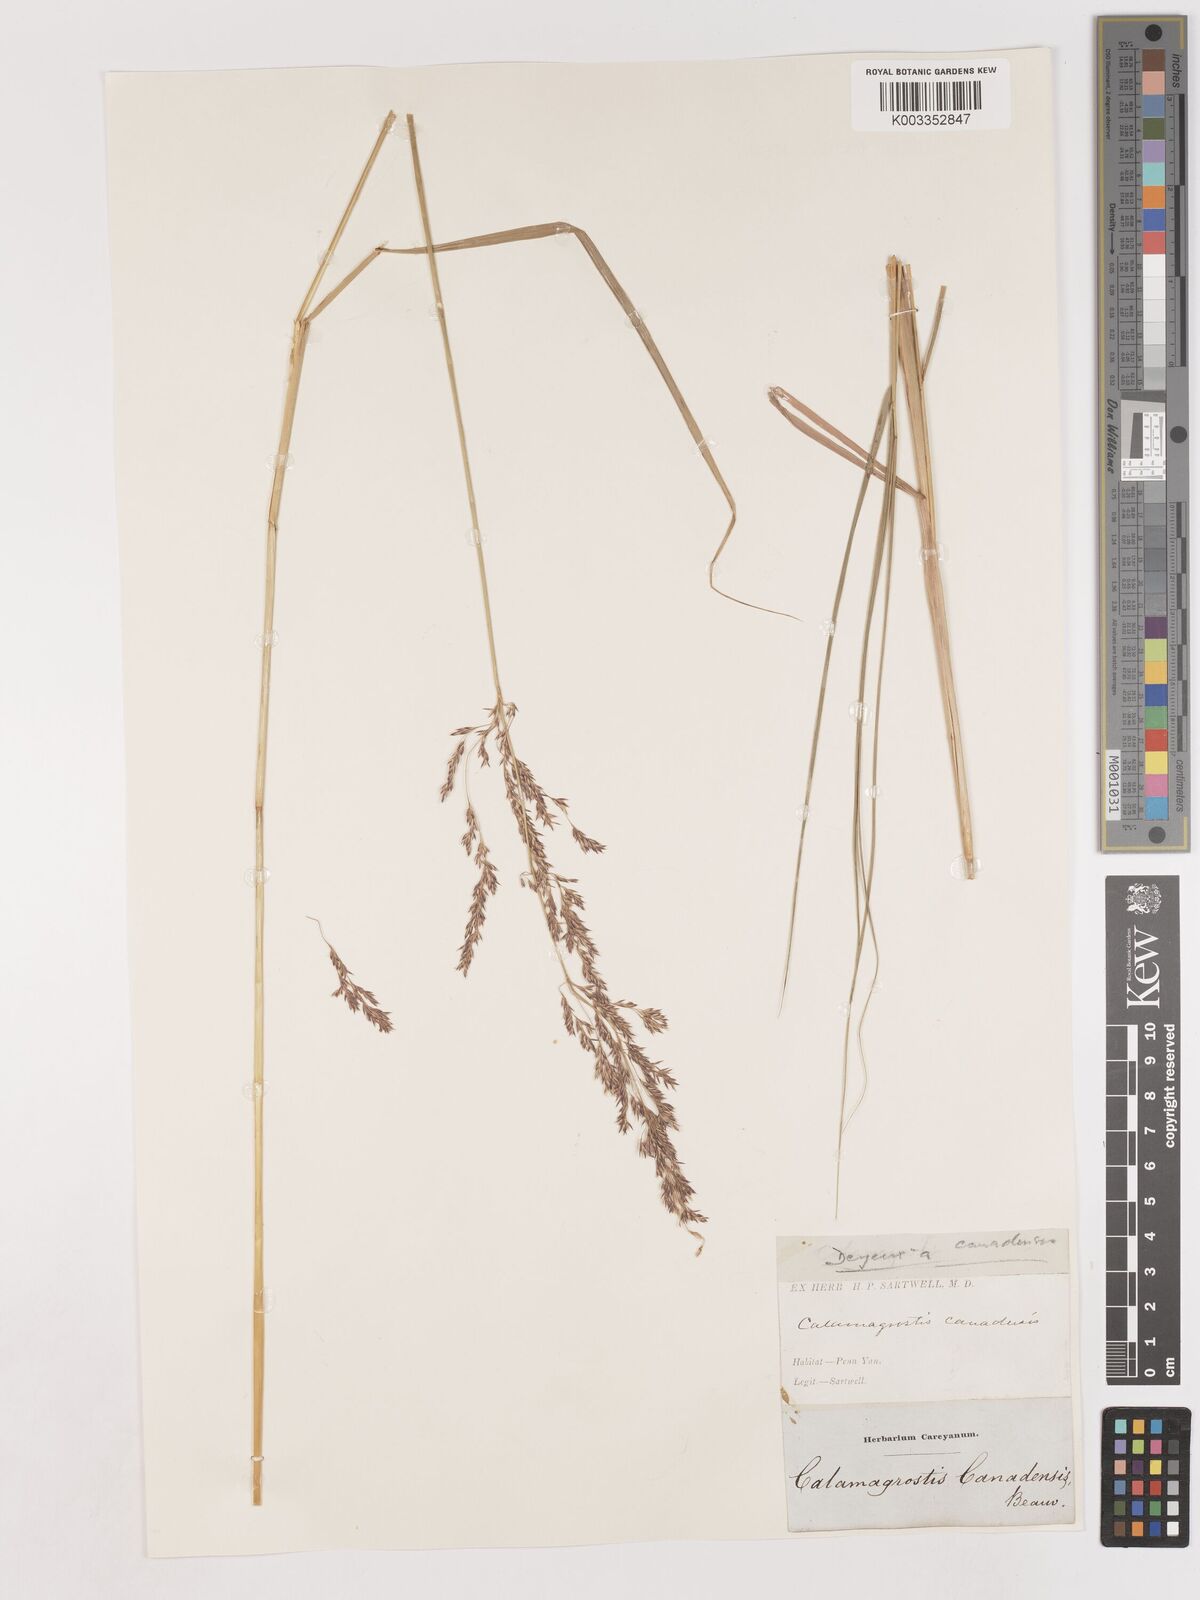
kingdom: Plantae
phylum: Tracheophyta
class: Liliopsida
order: Poales
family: Poaceae
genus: Calamagrostis
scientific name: Calamagrostis canadensis
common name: Canada bluejoint
